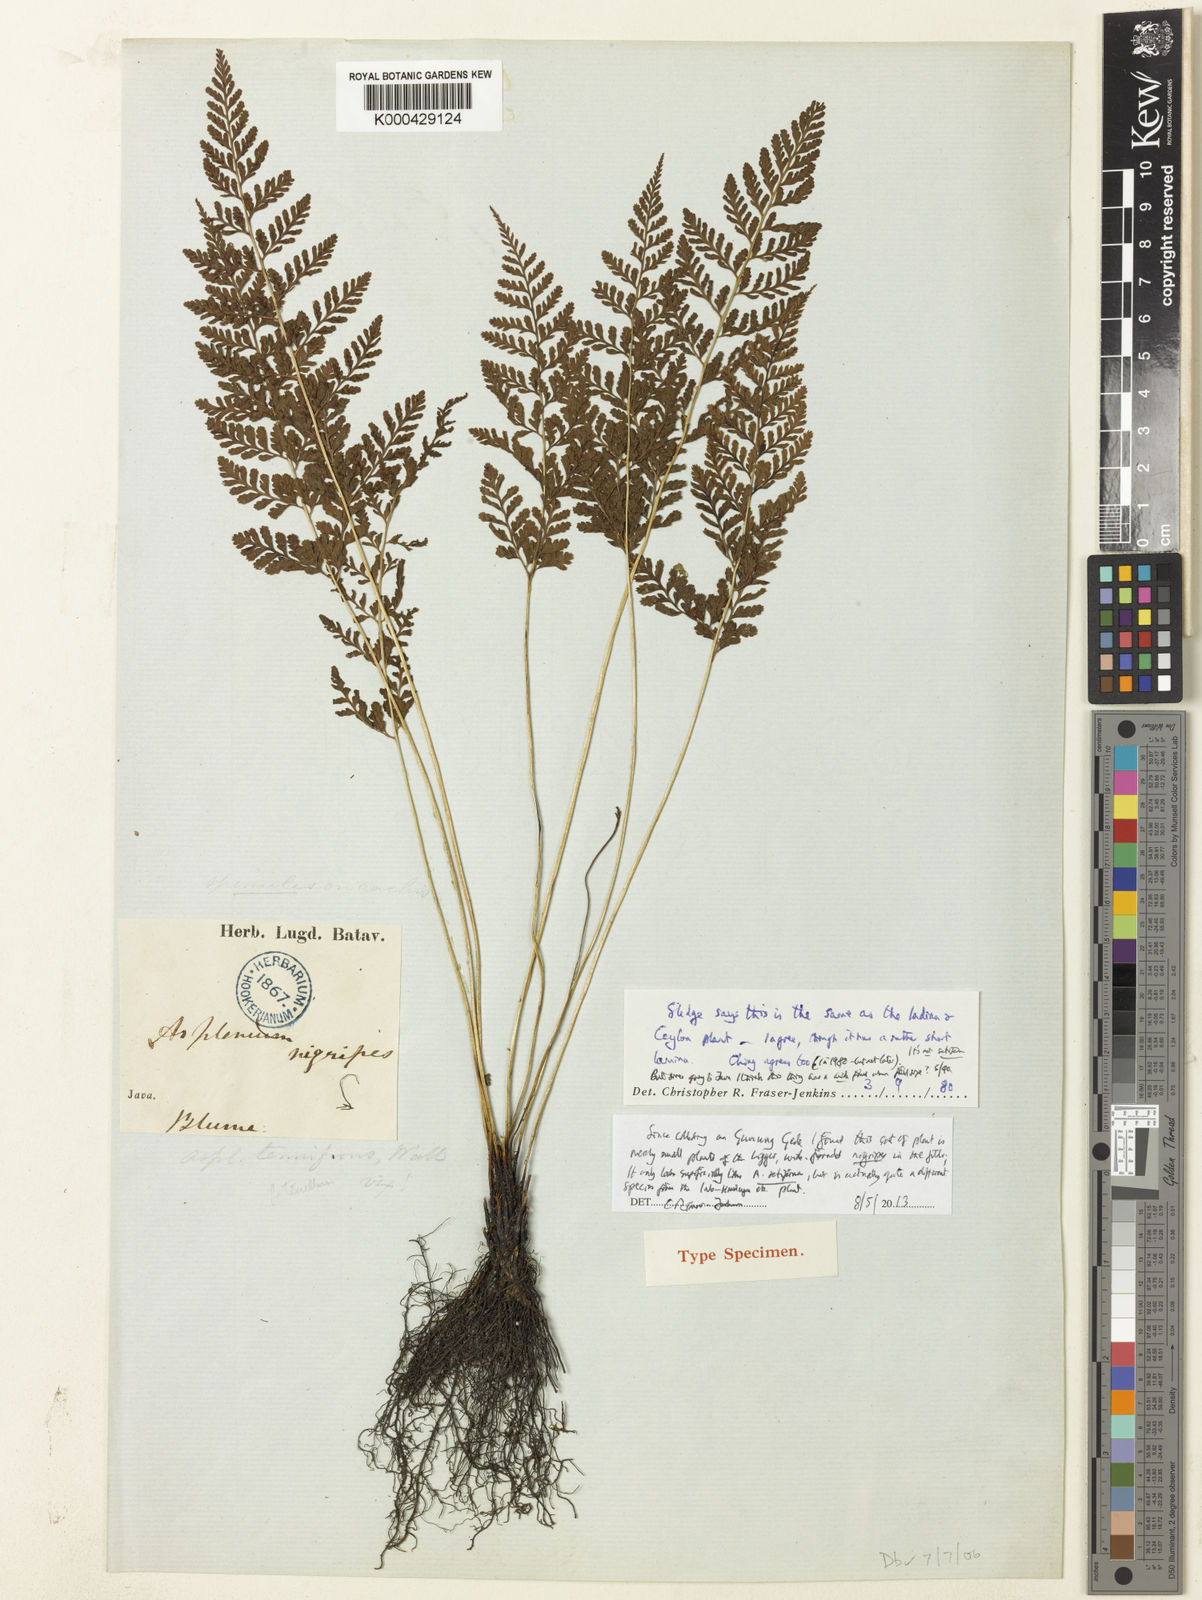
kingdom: Plantae
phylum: Tracheophyta
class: Polypodiopsida
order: Polypodiales
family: Athyriaceae
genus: Athyrium
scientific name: Athyrium nigripes
